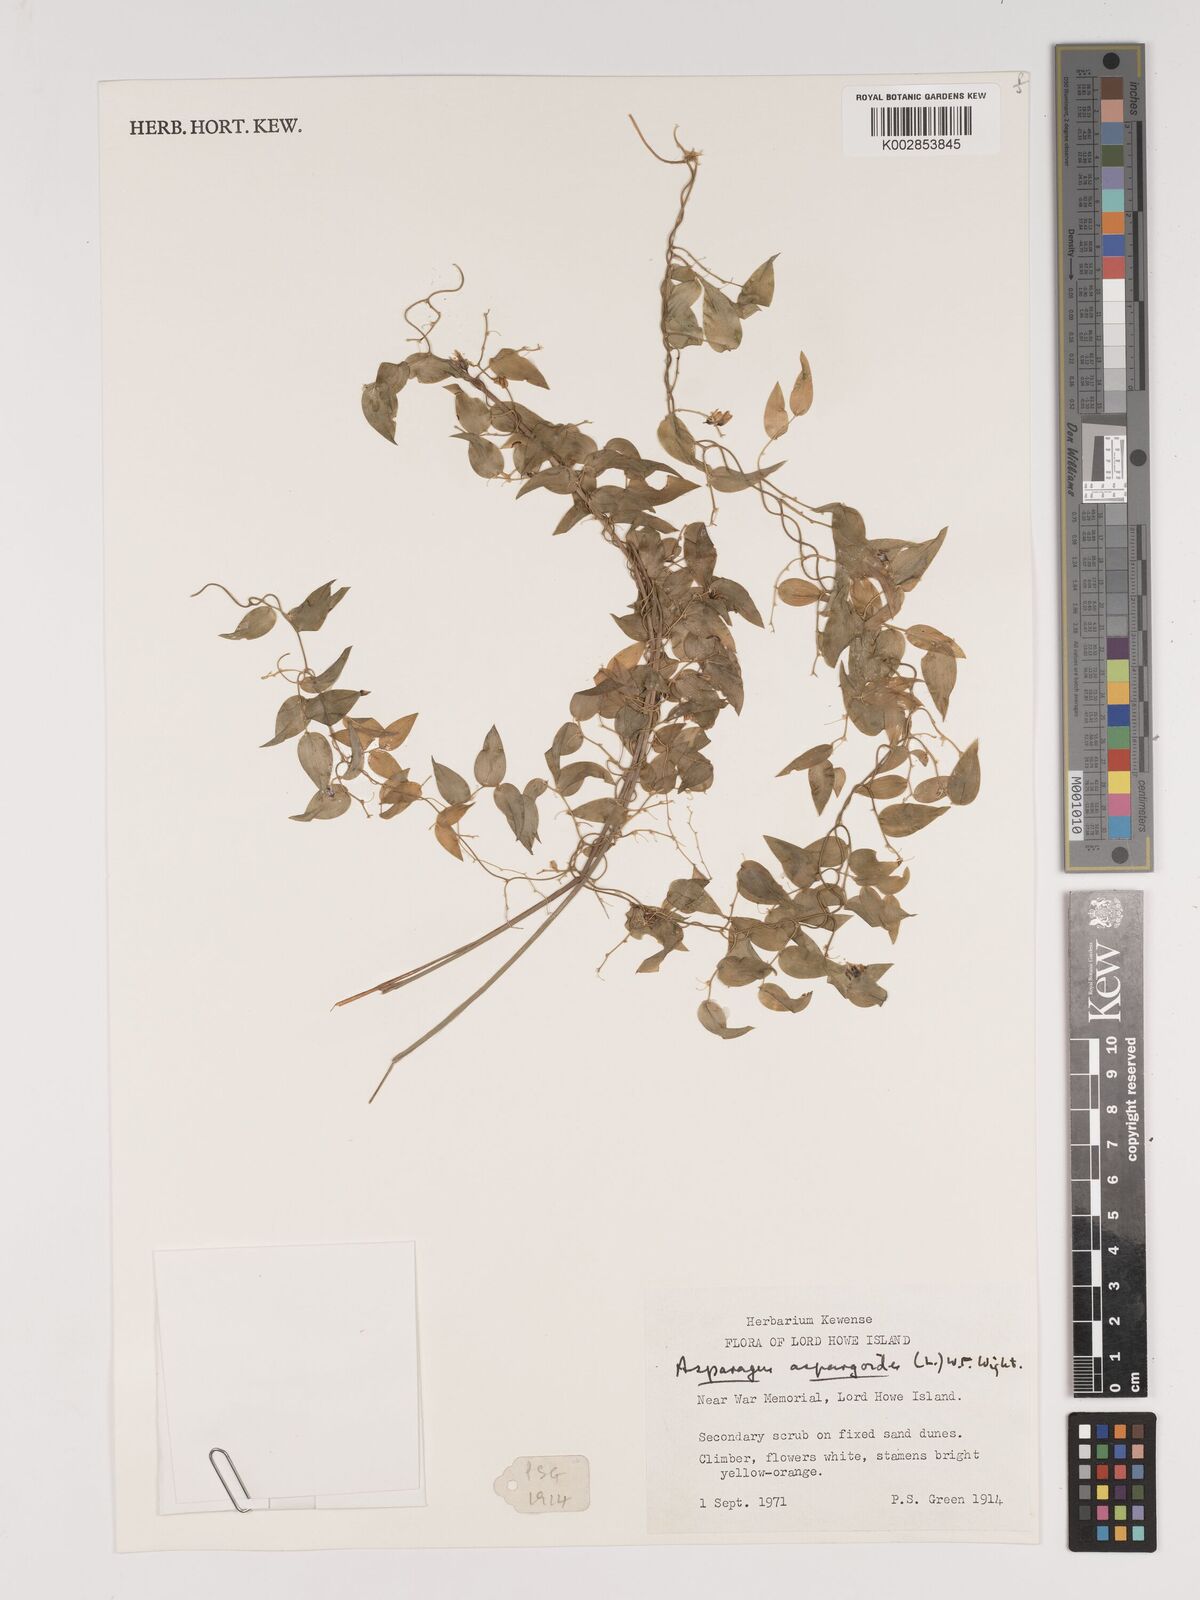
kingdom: Plantae
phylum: Tracheophyta
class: Liliopsida
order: Asparagales
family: Asparagaceae
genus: Asparagus
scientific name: Asparagus asparagoides
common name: African asparagus fern
